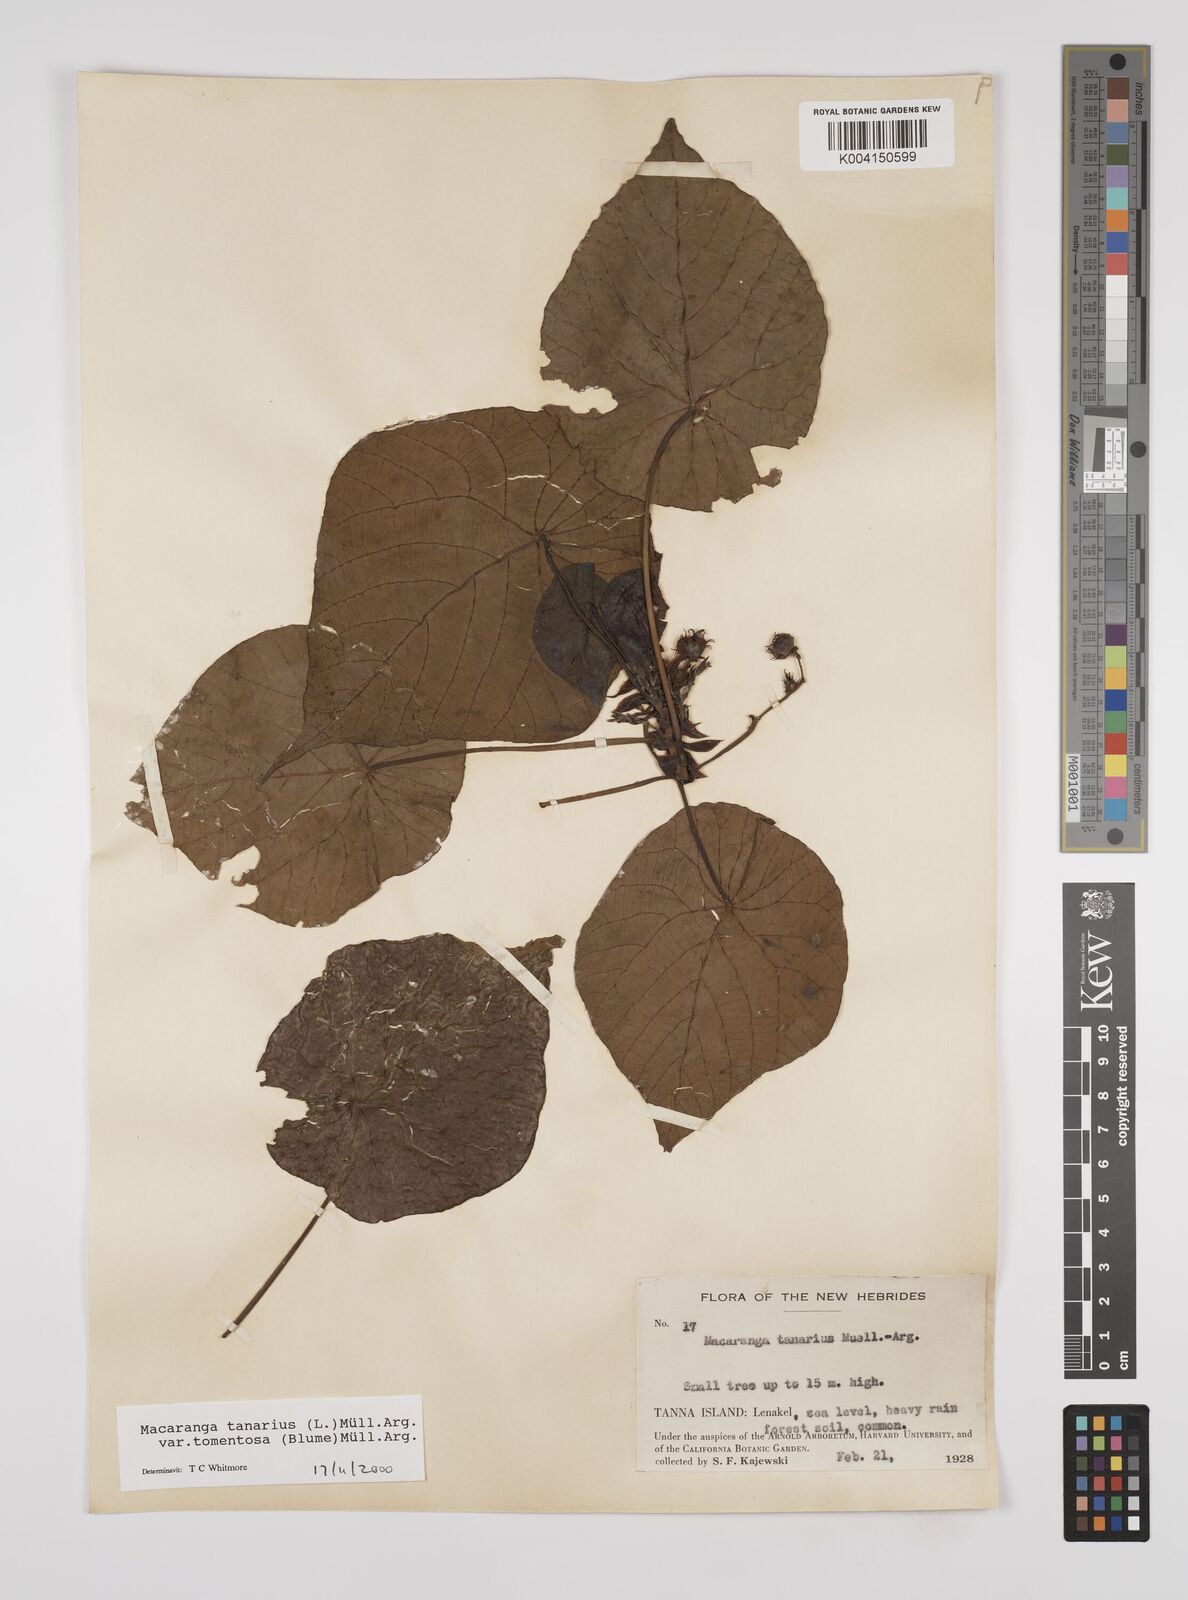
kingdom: Plantae
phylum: Tracheophyta
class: Magnoliopsida
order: Malpighiales
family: Euphorbiaceae
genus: Macaranga
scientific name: Macaranga tanarius
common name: Parasol leaf tree
